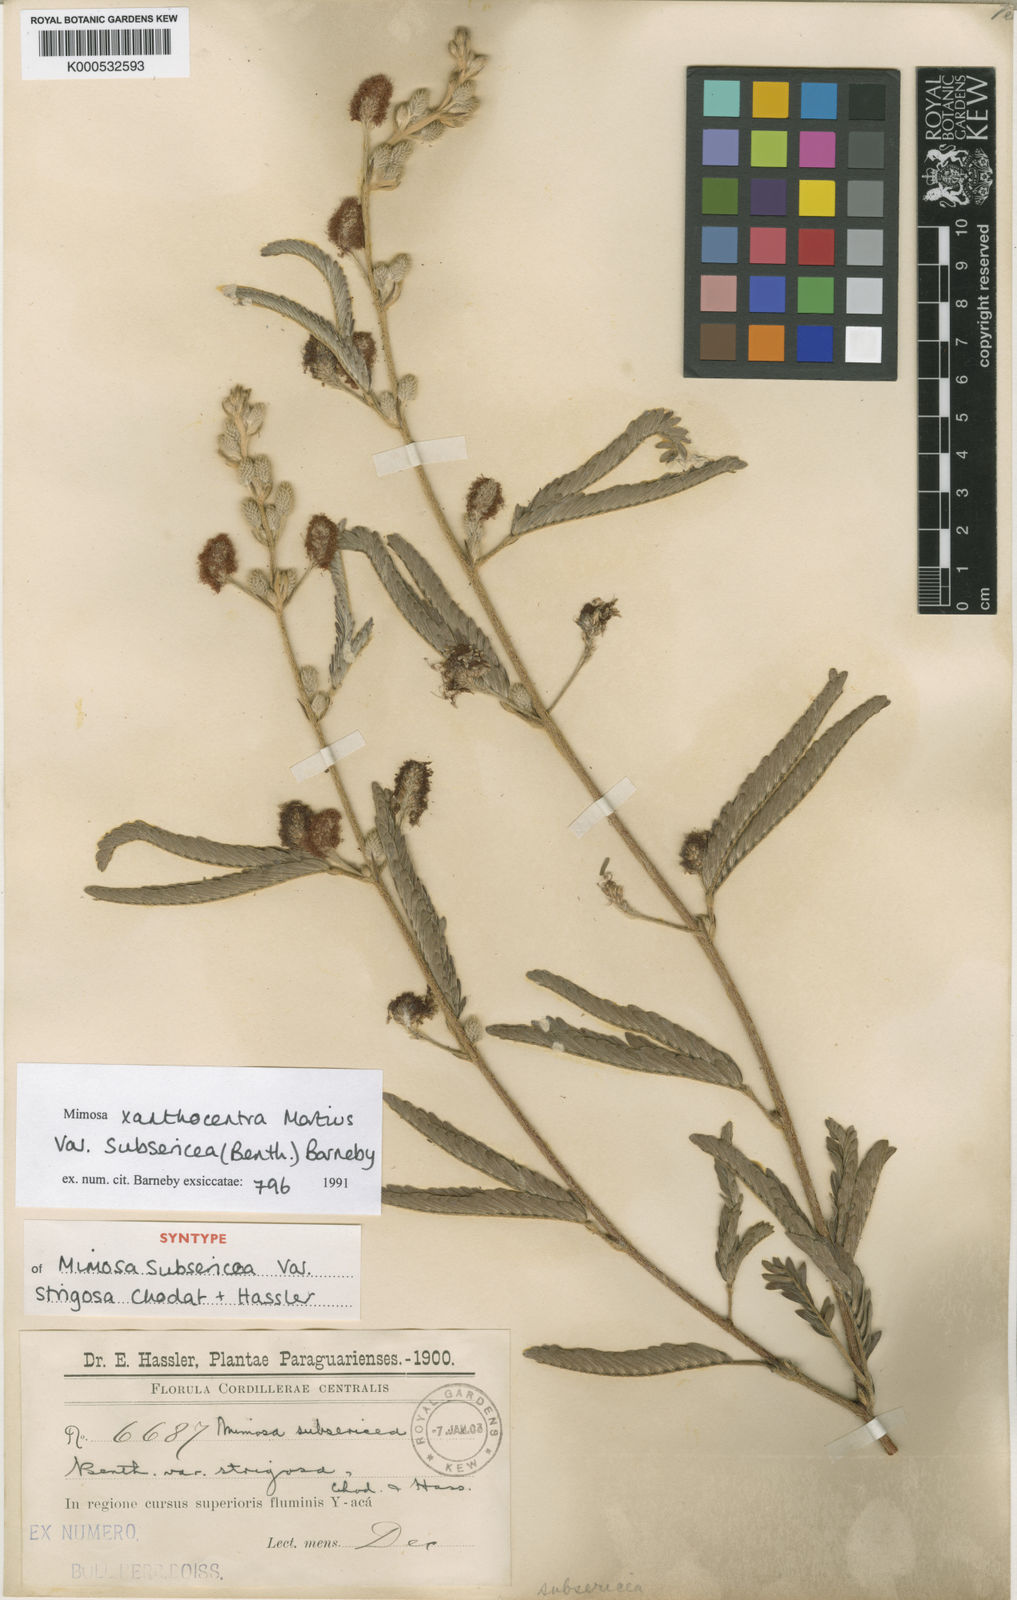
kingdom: Plantae
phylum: Tracheophyta
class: Magnoliopsida
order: Fabales
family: Fabaceae
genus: Mimosa
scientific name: Mimosa xanthocentra
